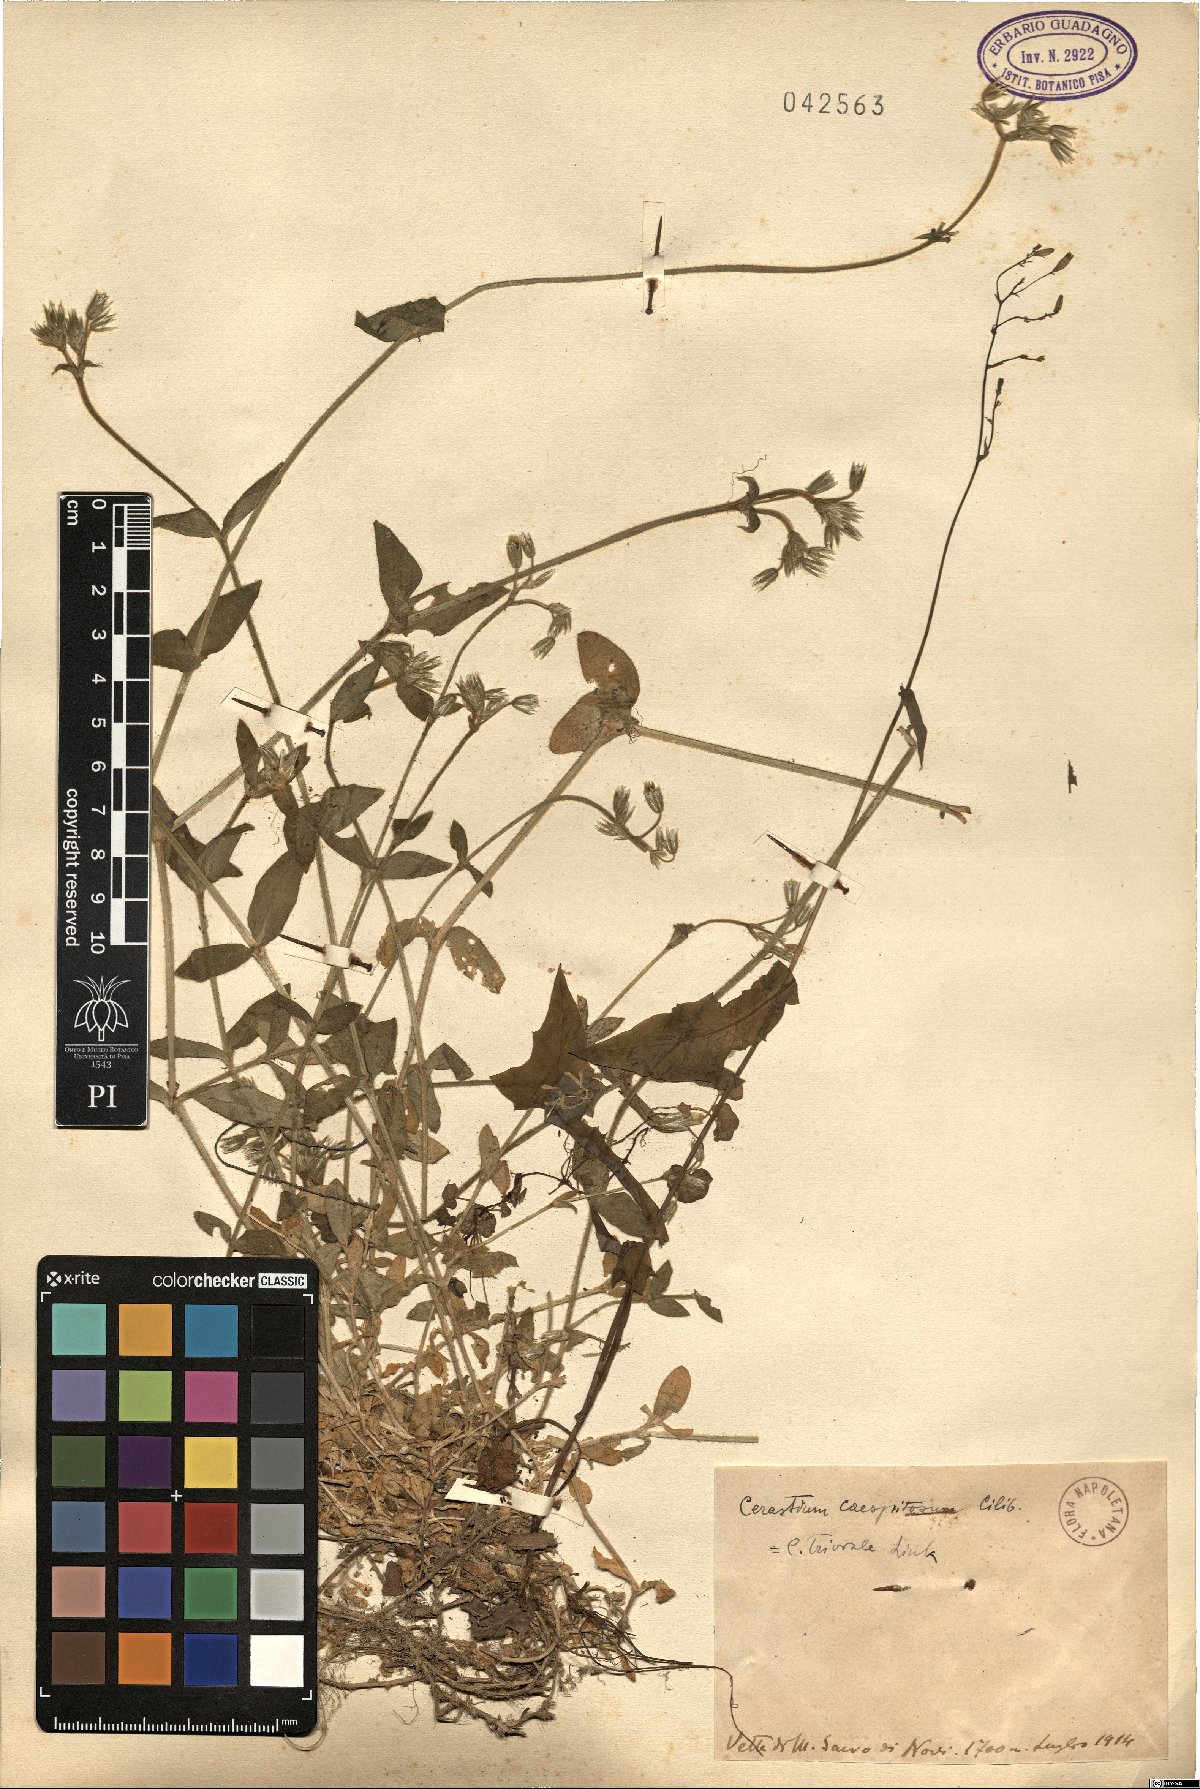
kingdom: Plantae
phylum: Tracheophyta
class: Magnoliopsida
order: Caryophyllales
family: Caryophyllaceae
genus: Cerastium
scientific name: Cerastium glomeratum
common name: Sticky chickweed
